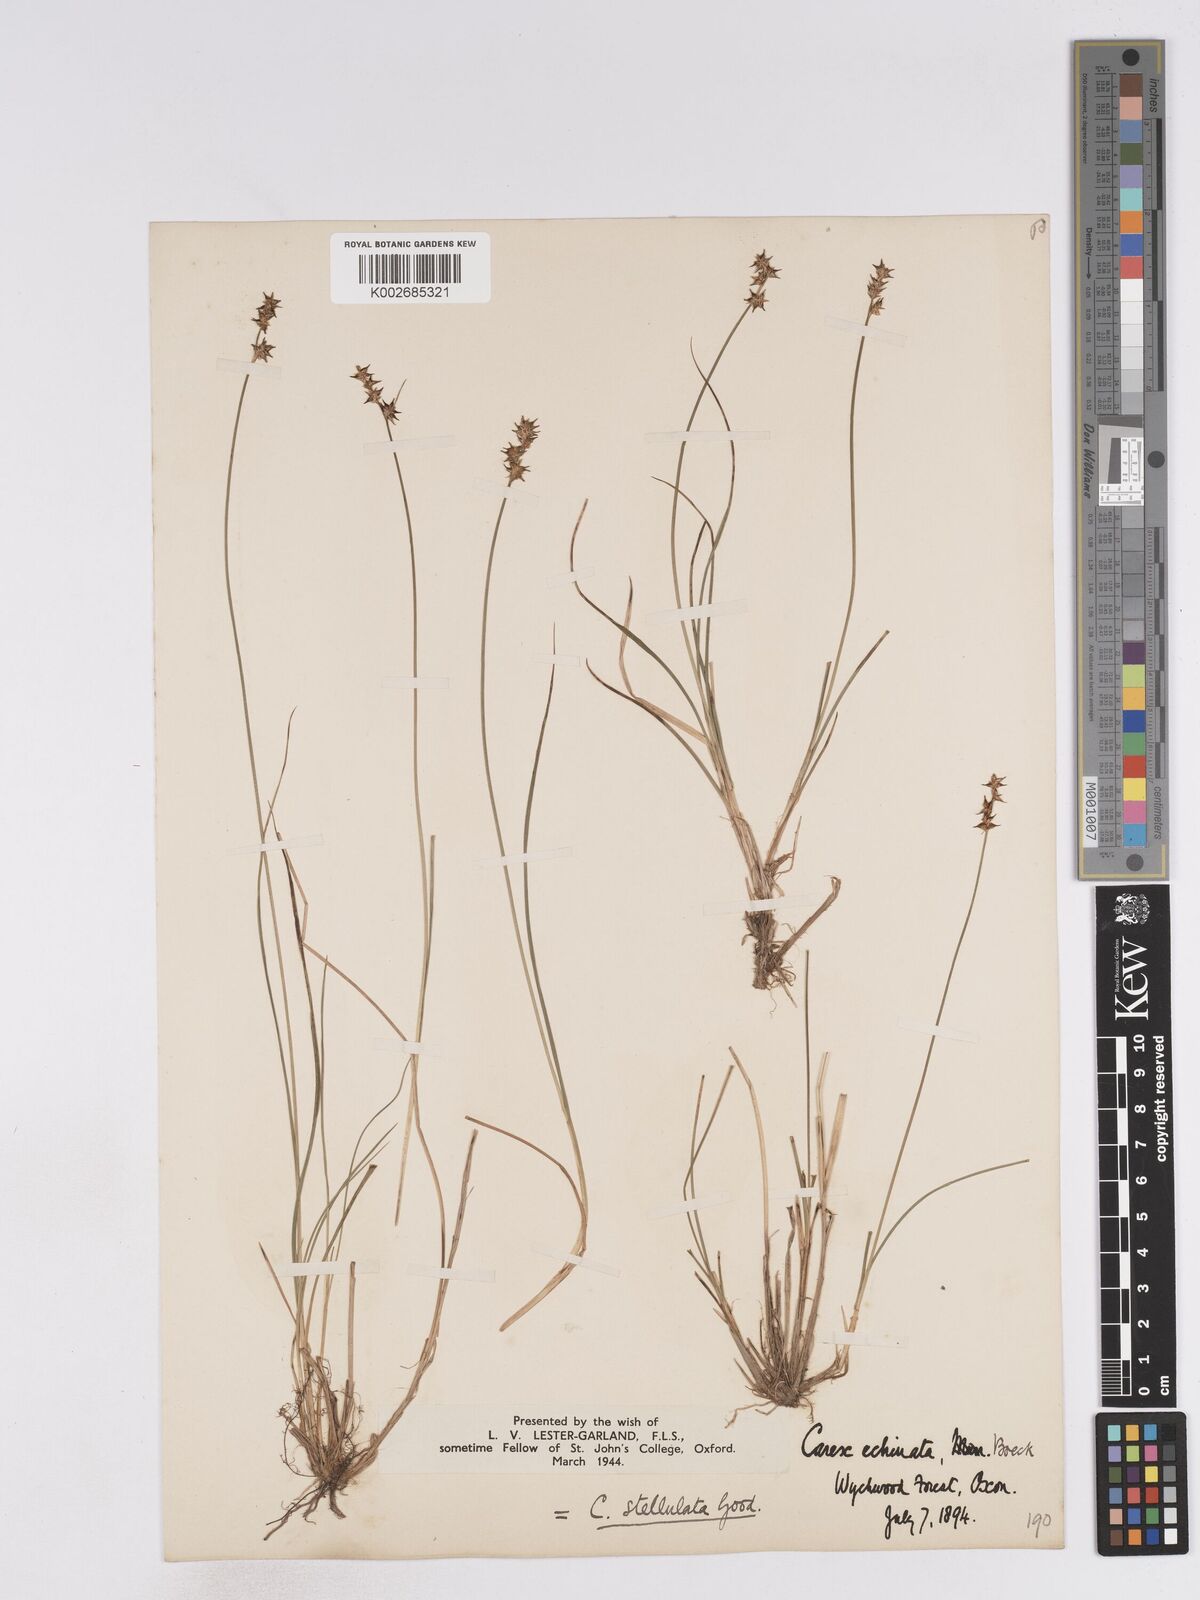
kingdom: Plantae
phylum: Tracheophyta
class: Liliopsida
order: Poales
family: Cyperaceae
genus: Carex
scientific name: Carex echinata
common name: Star sedge
